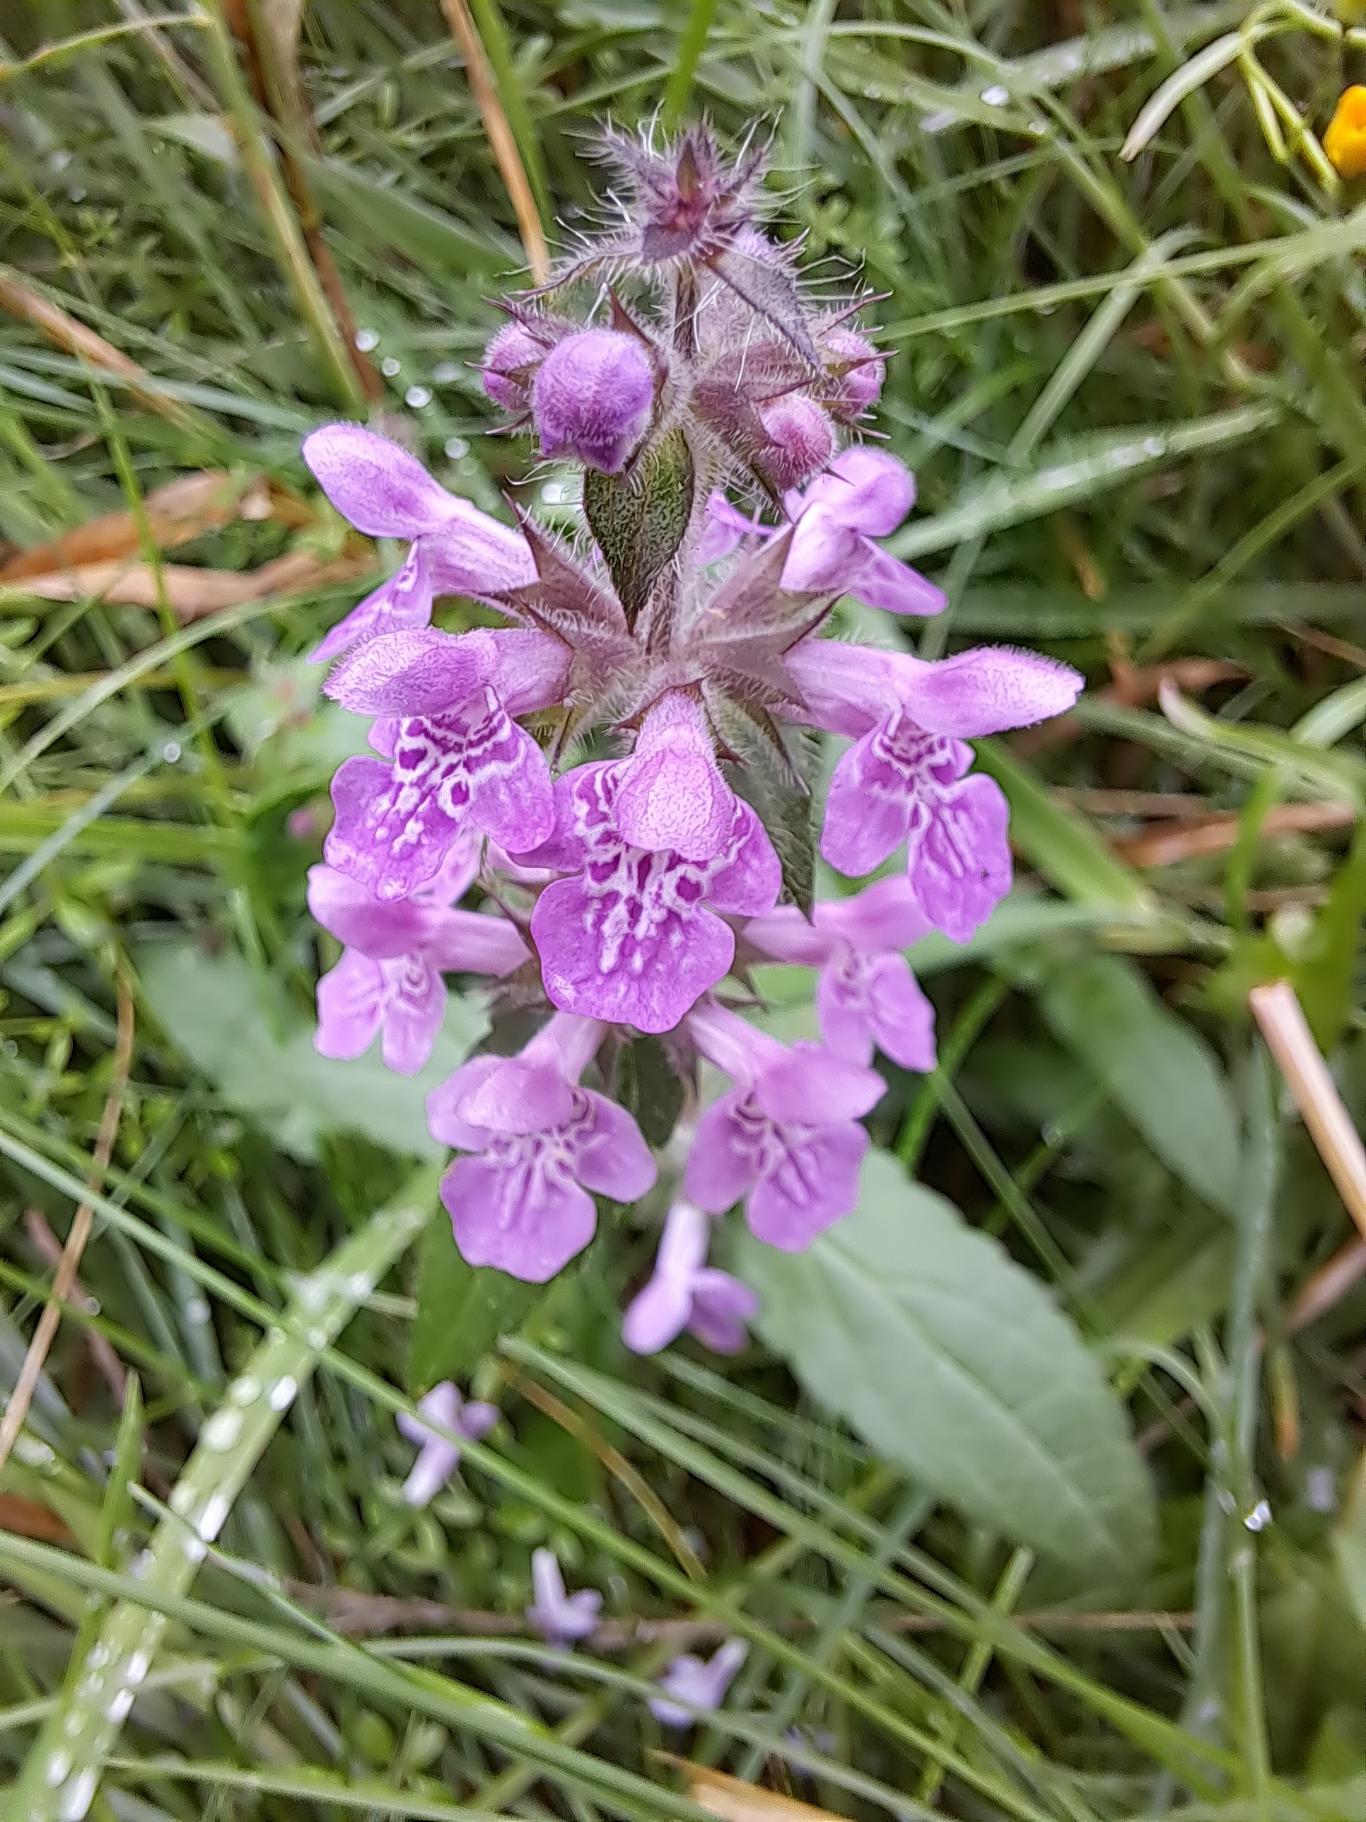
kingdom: Plantae
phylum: Tracheophyta
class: Magnoliopsida
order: Lamiales
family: Lamiaceae
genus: Stachys
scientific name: Stachys palustris
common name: Kær-galtetand
